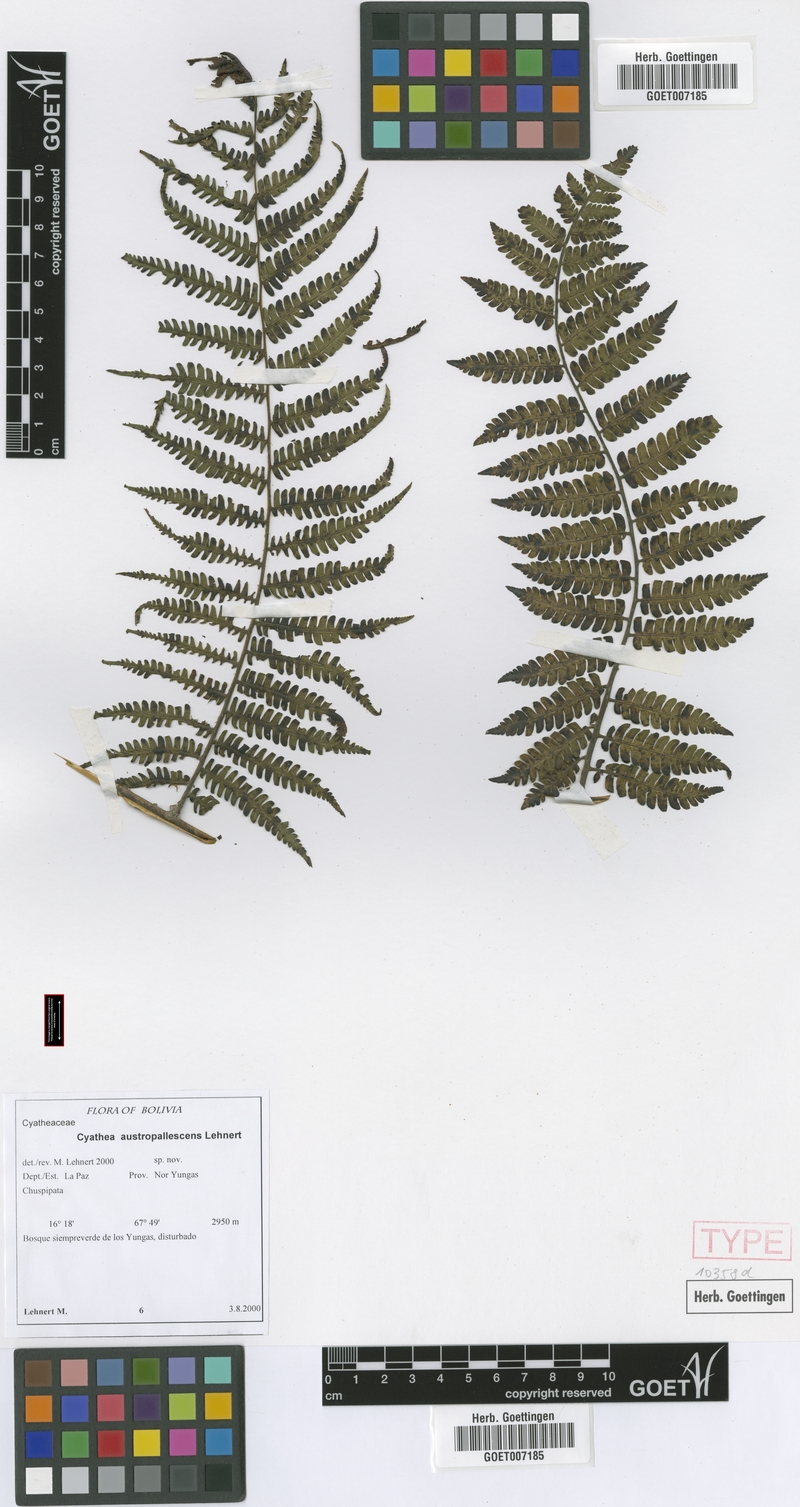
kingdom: Plantae
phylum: Tracheophyta
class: Polypodiopsida
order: Cyatheales
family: Cyatheaceae
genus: Cyathea
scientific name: Cyathea austropallescens
